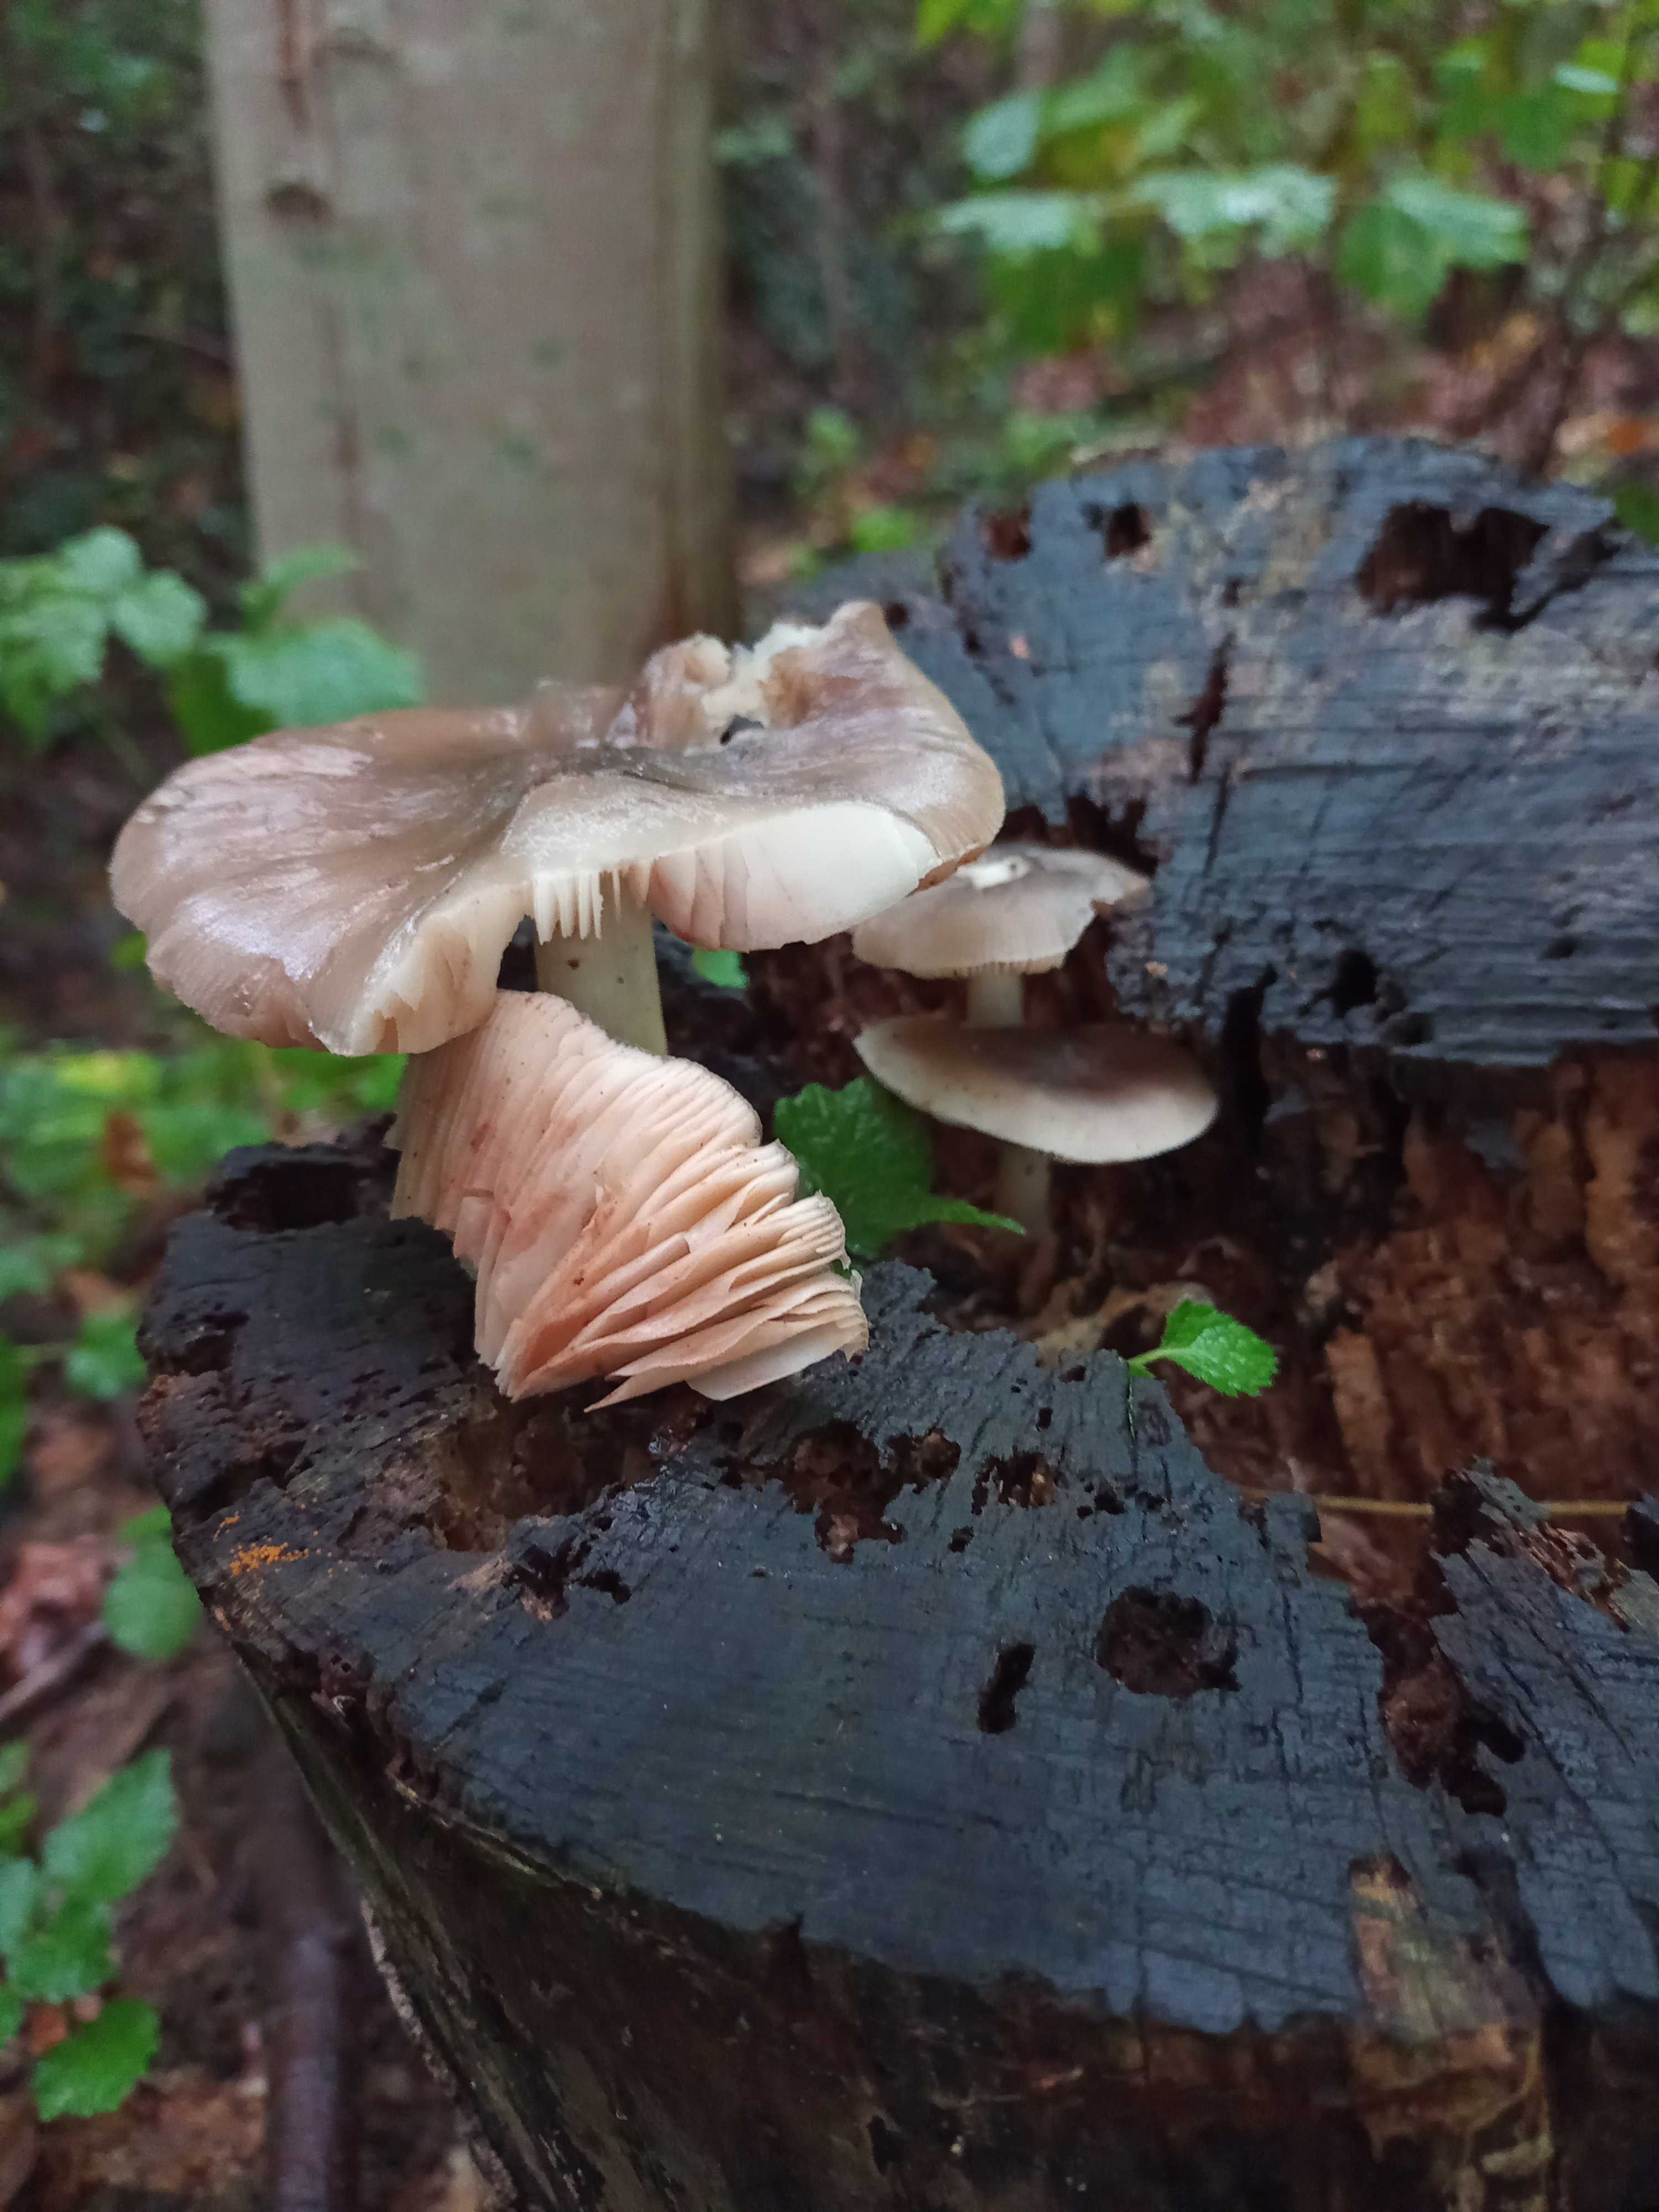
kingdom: Fungi
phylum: Basidiomycota
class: Agaricomycetes
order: Agaricales
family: Pluteaceae
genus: Pluteus
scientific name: Pluteus
